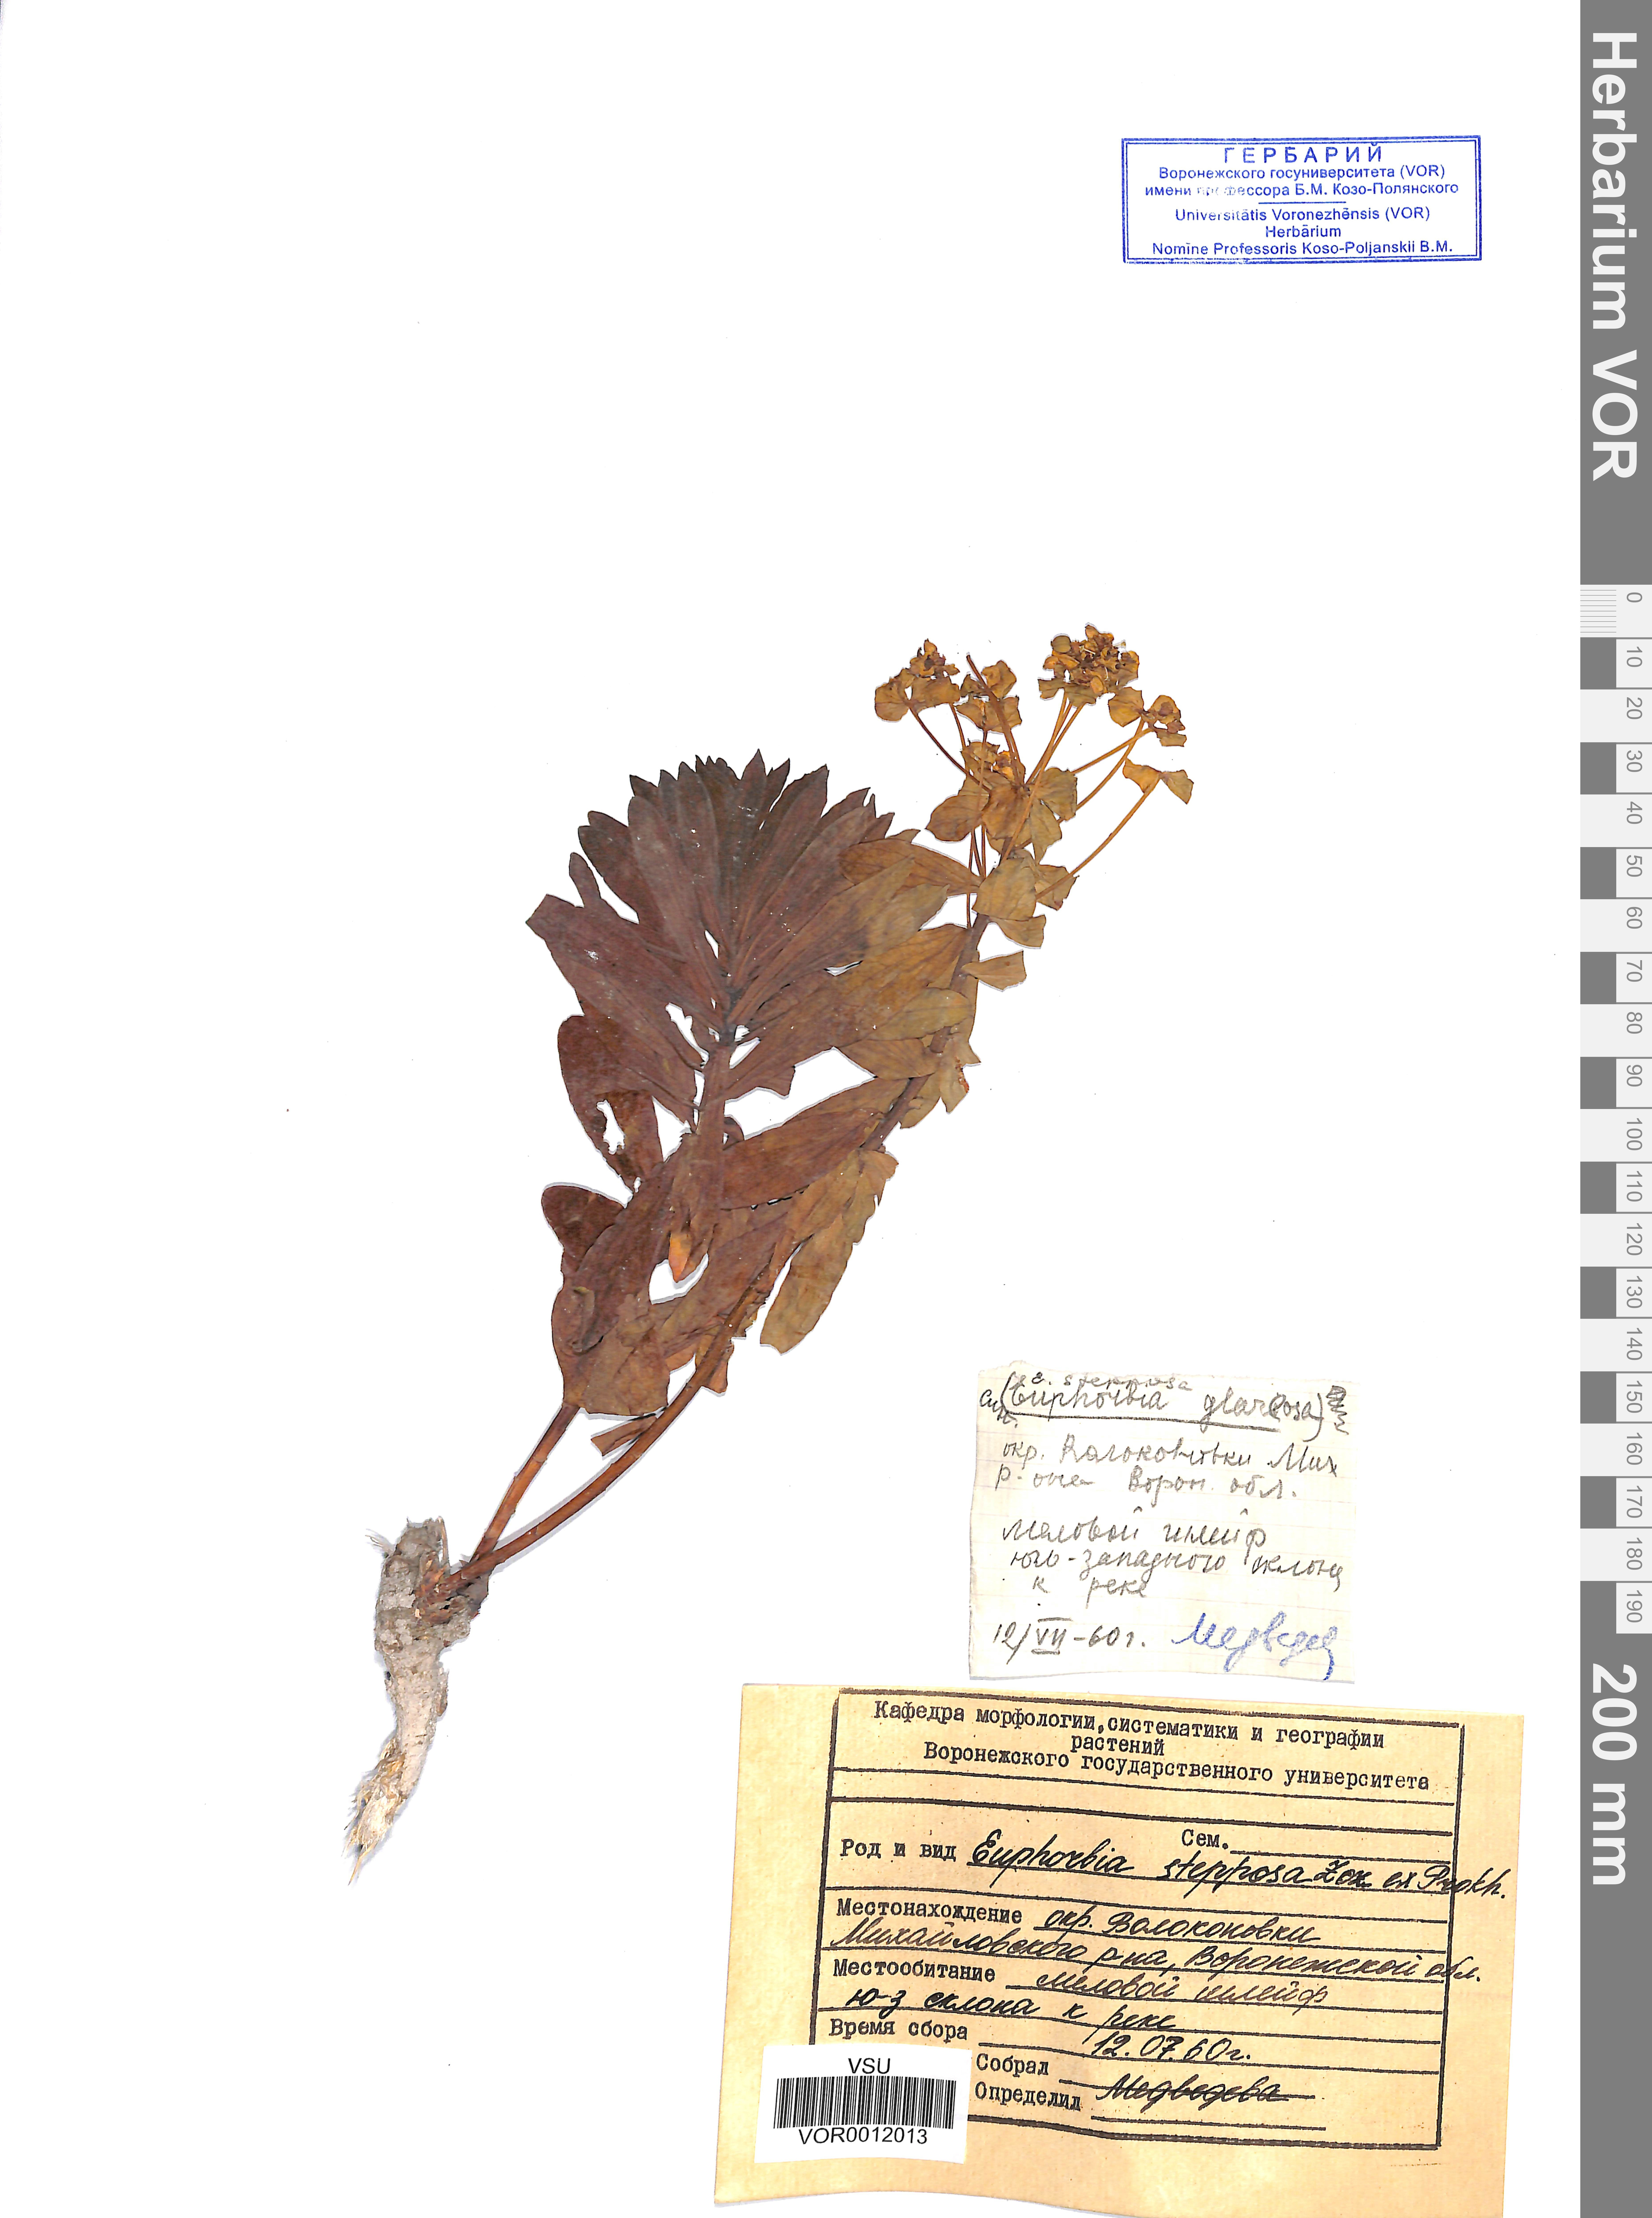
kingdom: Plantae
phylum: Tracheophyta
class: Magnoliopsida
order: Malpighiales
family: Euphorbiaceae
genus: Euphorbia
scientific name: Euphorbia stepposa
